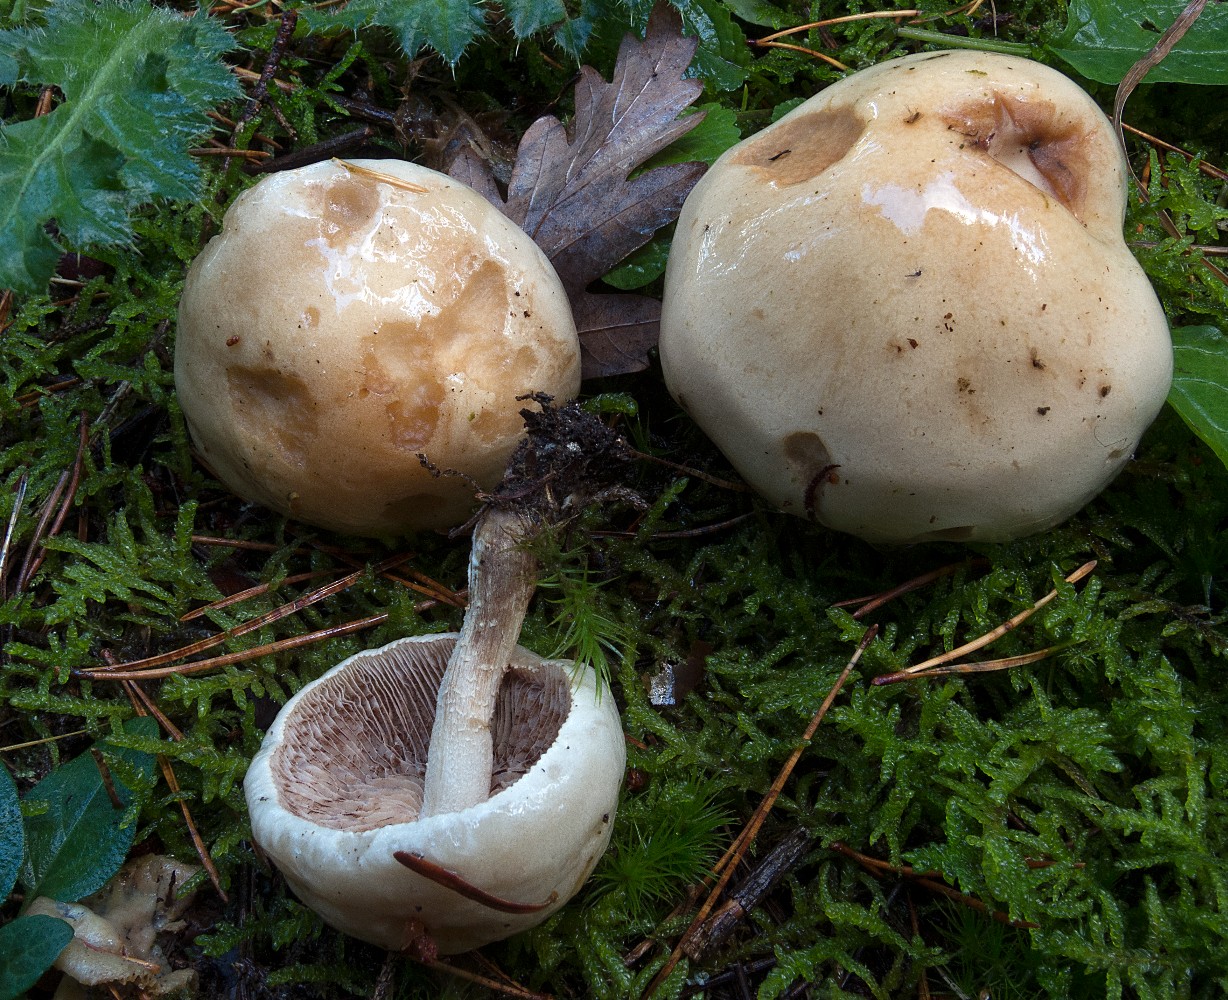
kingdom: Fungi
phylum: Basidiomycota
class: Agaricomycetes
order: Agaricales
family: Hymenogastraceae
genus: Hebeloma
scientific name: Hebeloma laterinum
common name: kakao-tåreblad
